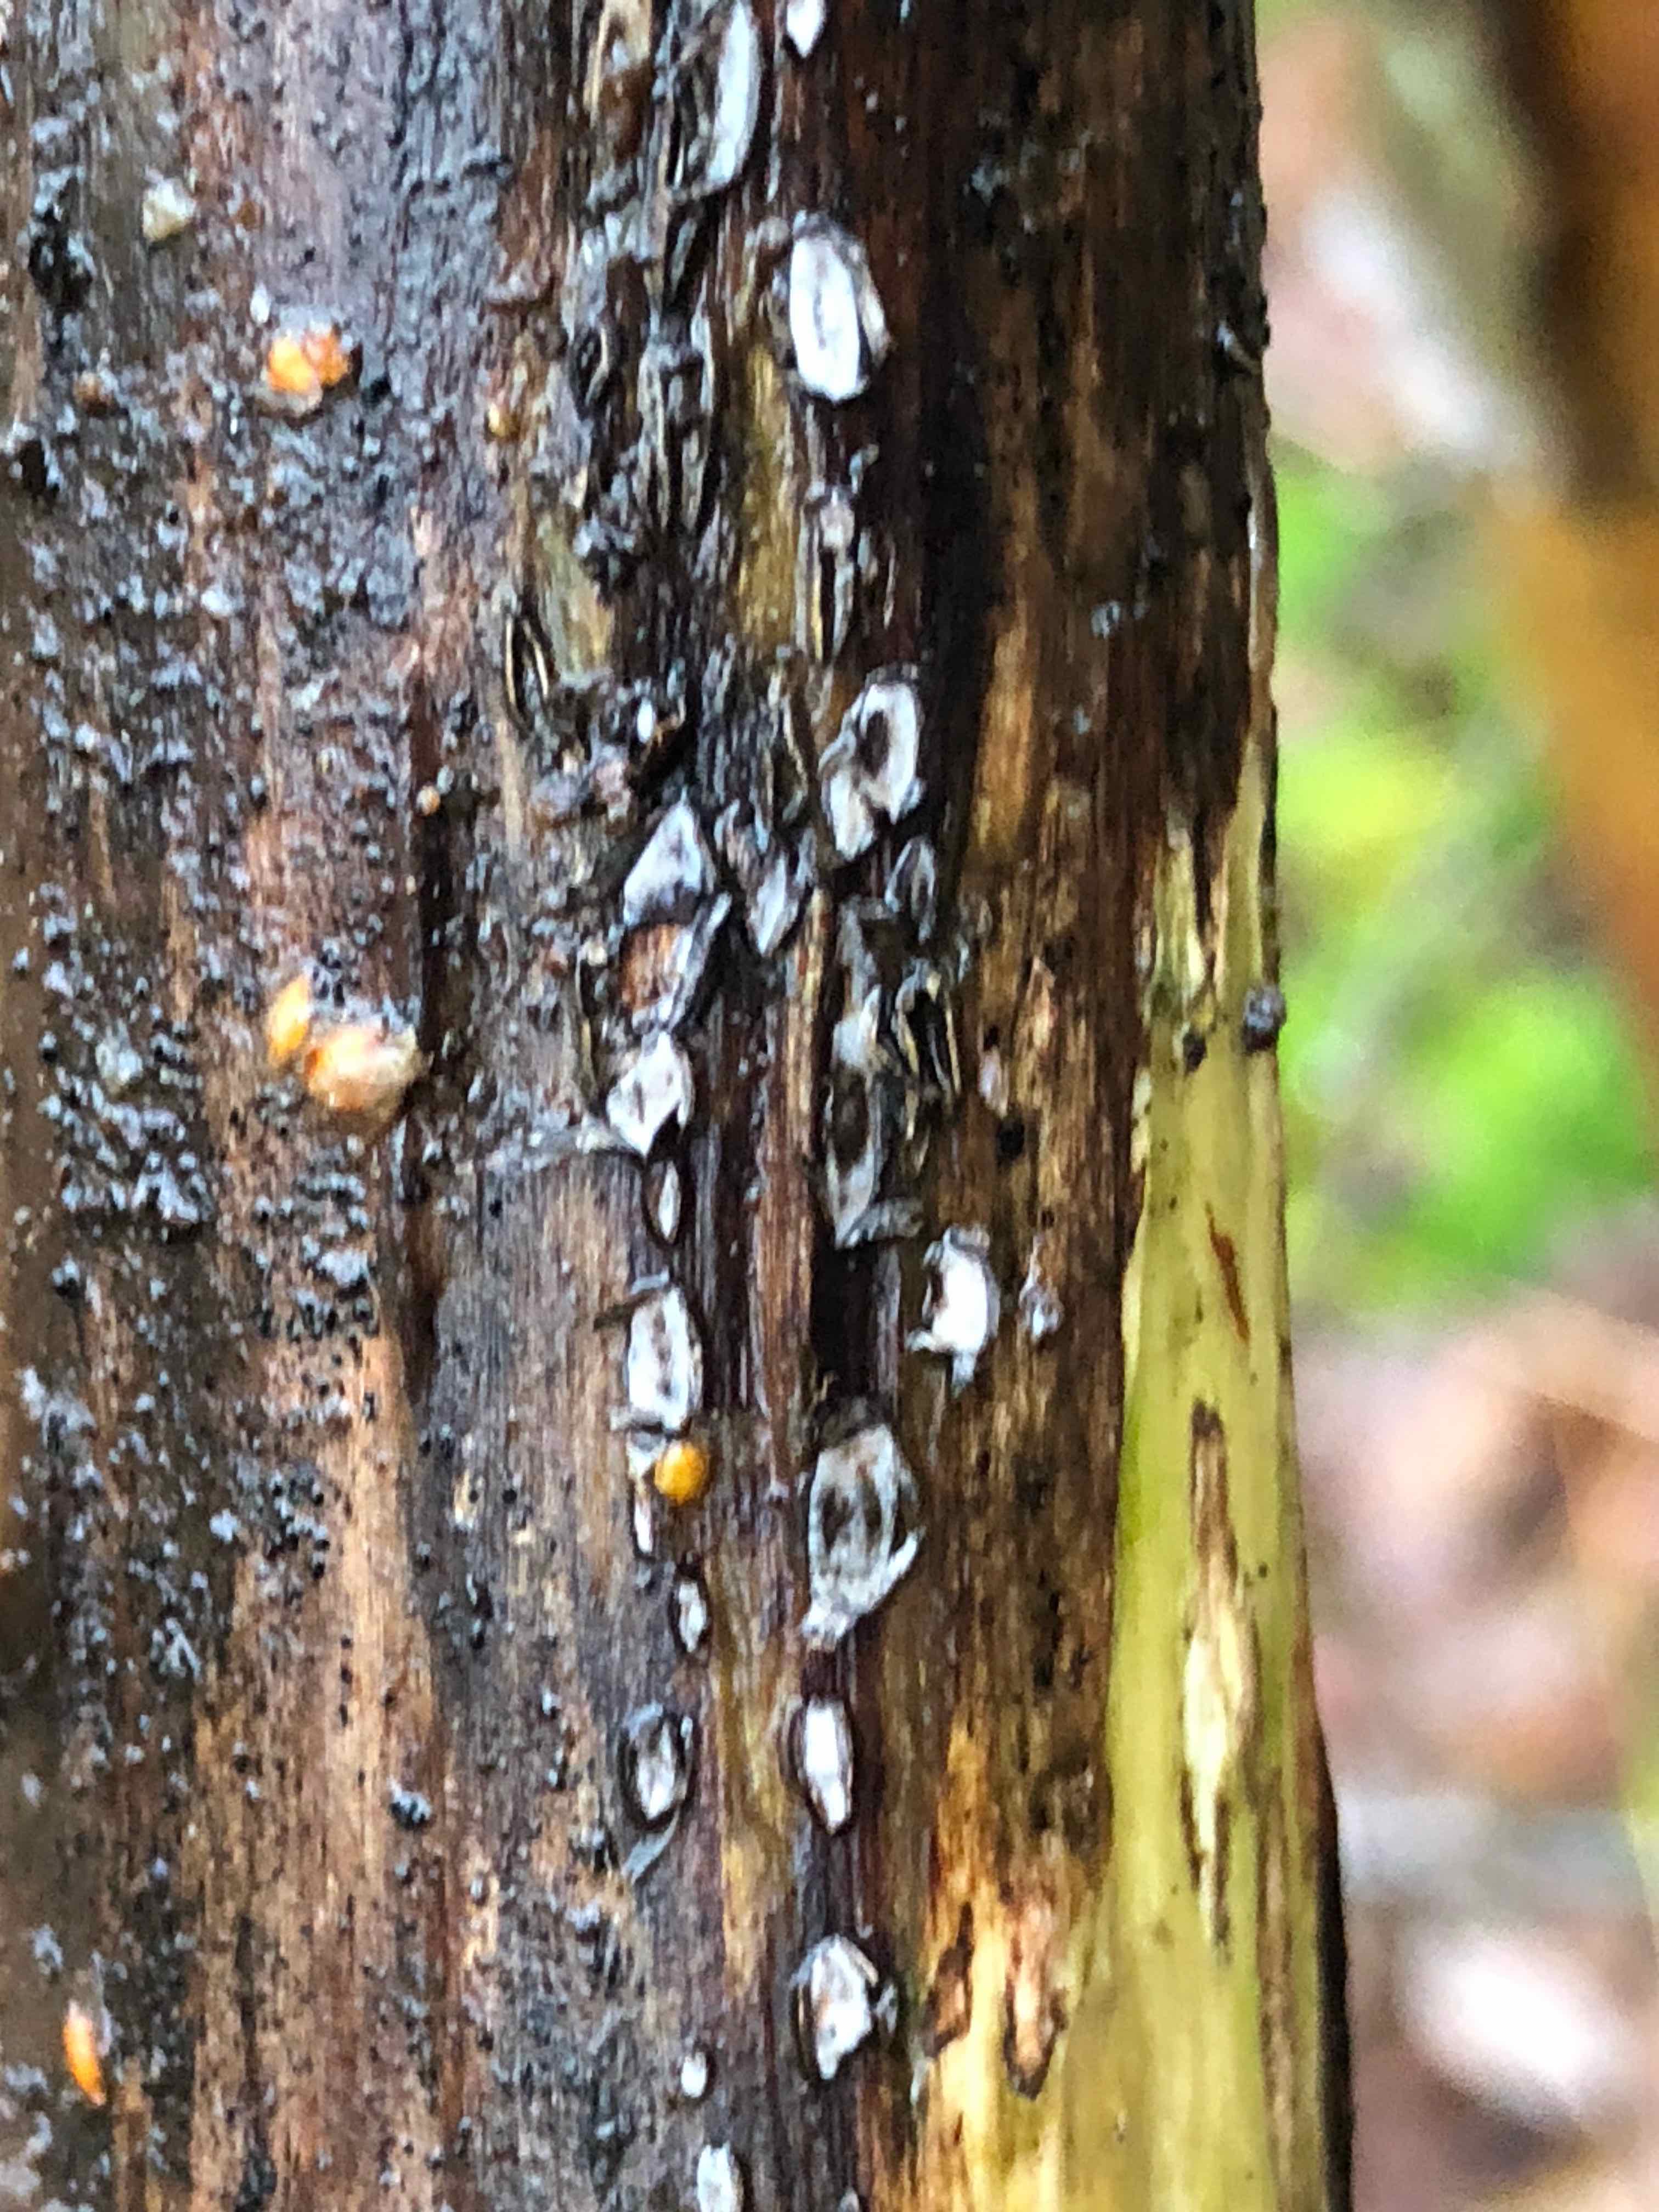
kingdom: Fungi
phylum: Ascomycota
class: Leotiomycetes
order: Chaetomellales
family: Marthamycetaceae
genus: Propolis
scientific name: Propolis farinosa
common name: almindelig vedsprængerskive
